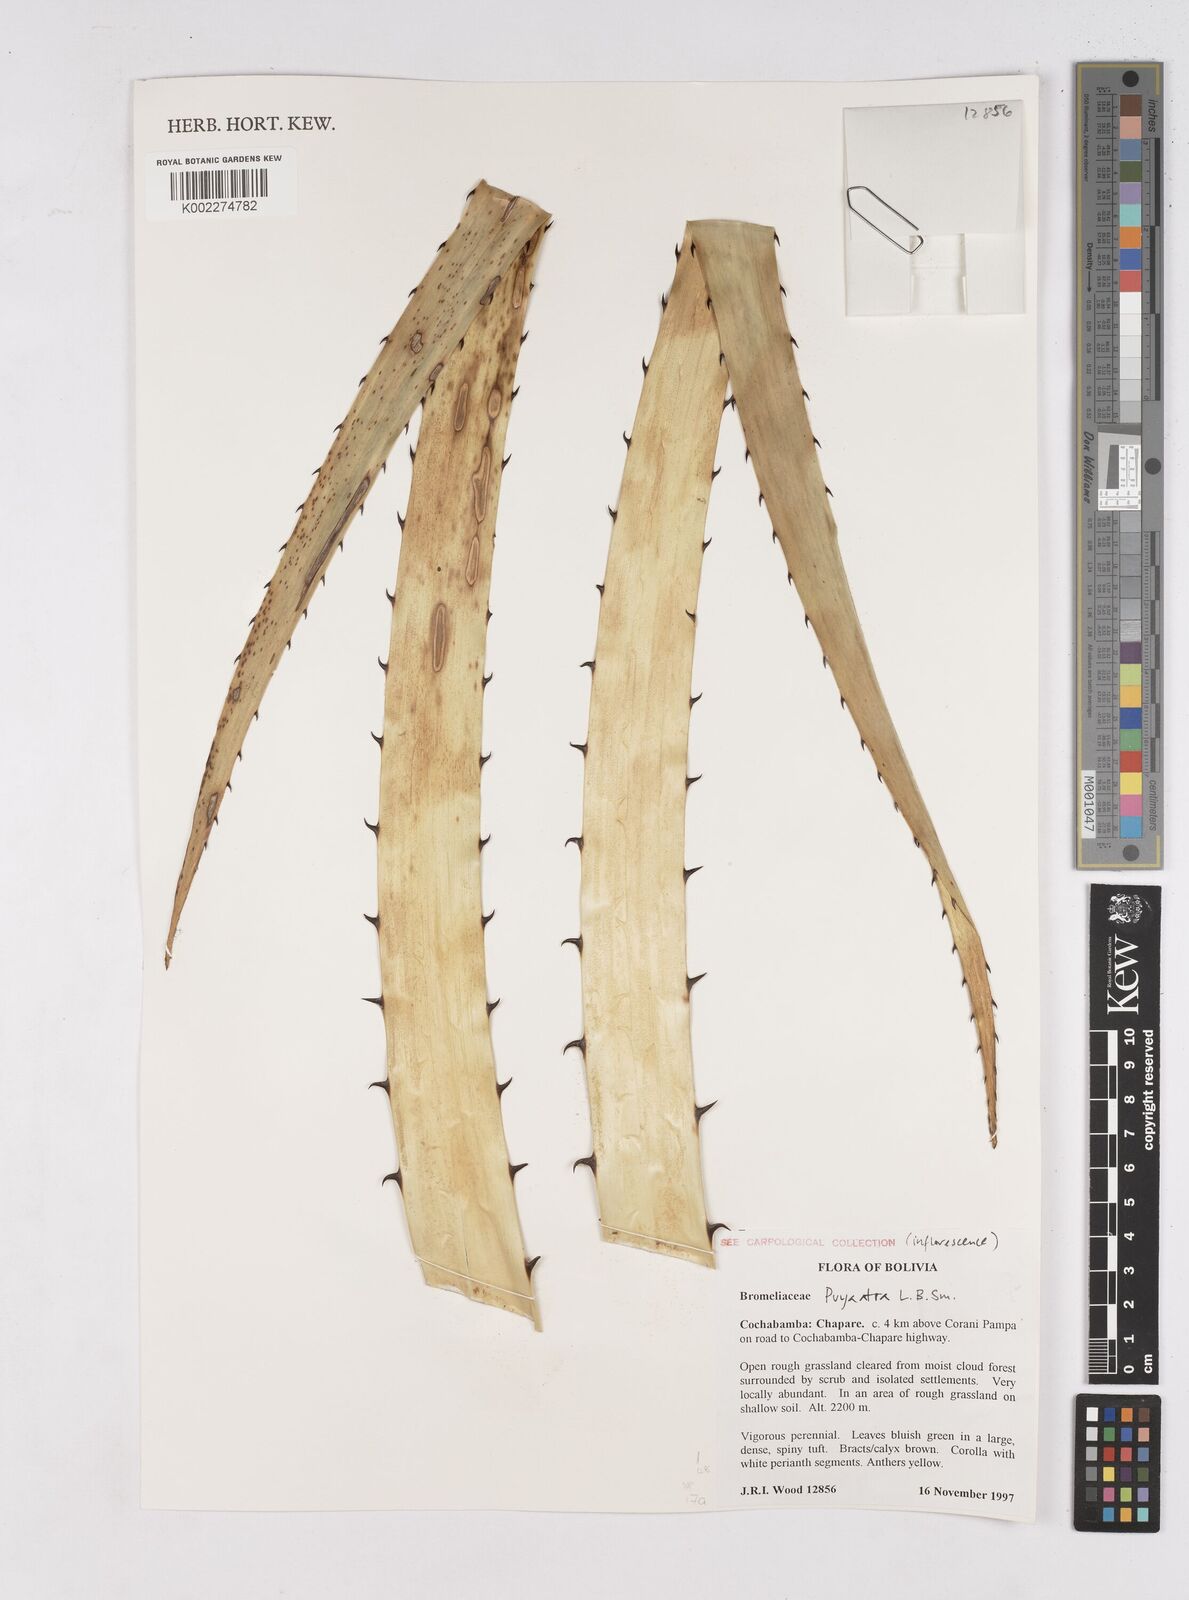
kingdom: Plantae
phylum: Tracheophyta
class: Liliopsida
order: Poales
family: Bromeliaceae
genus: Puya
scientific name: Puya atra
